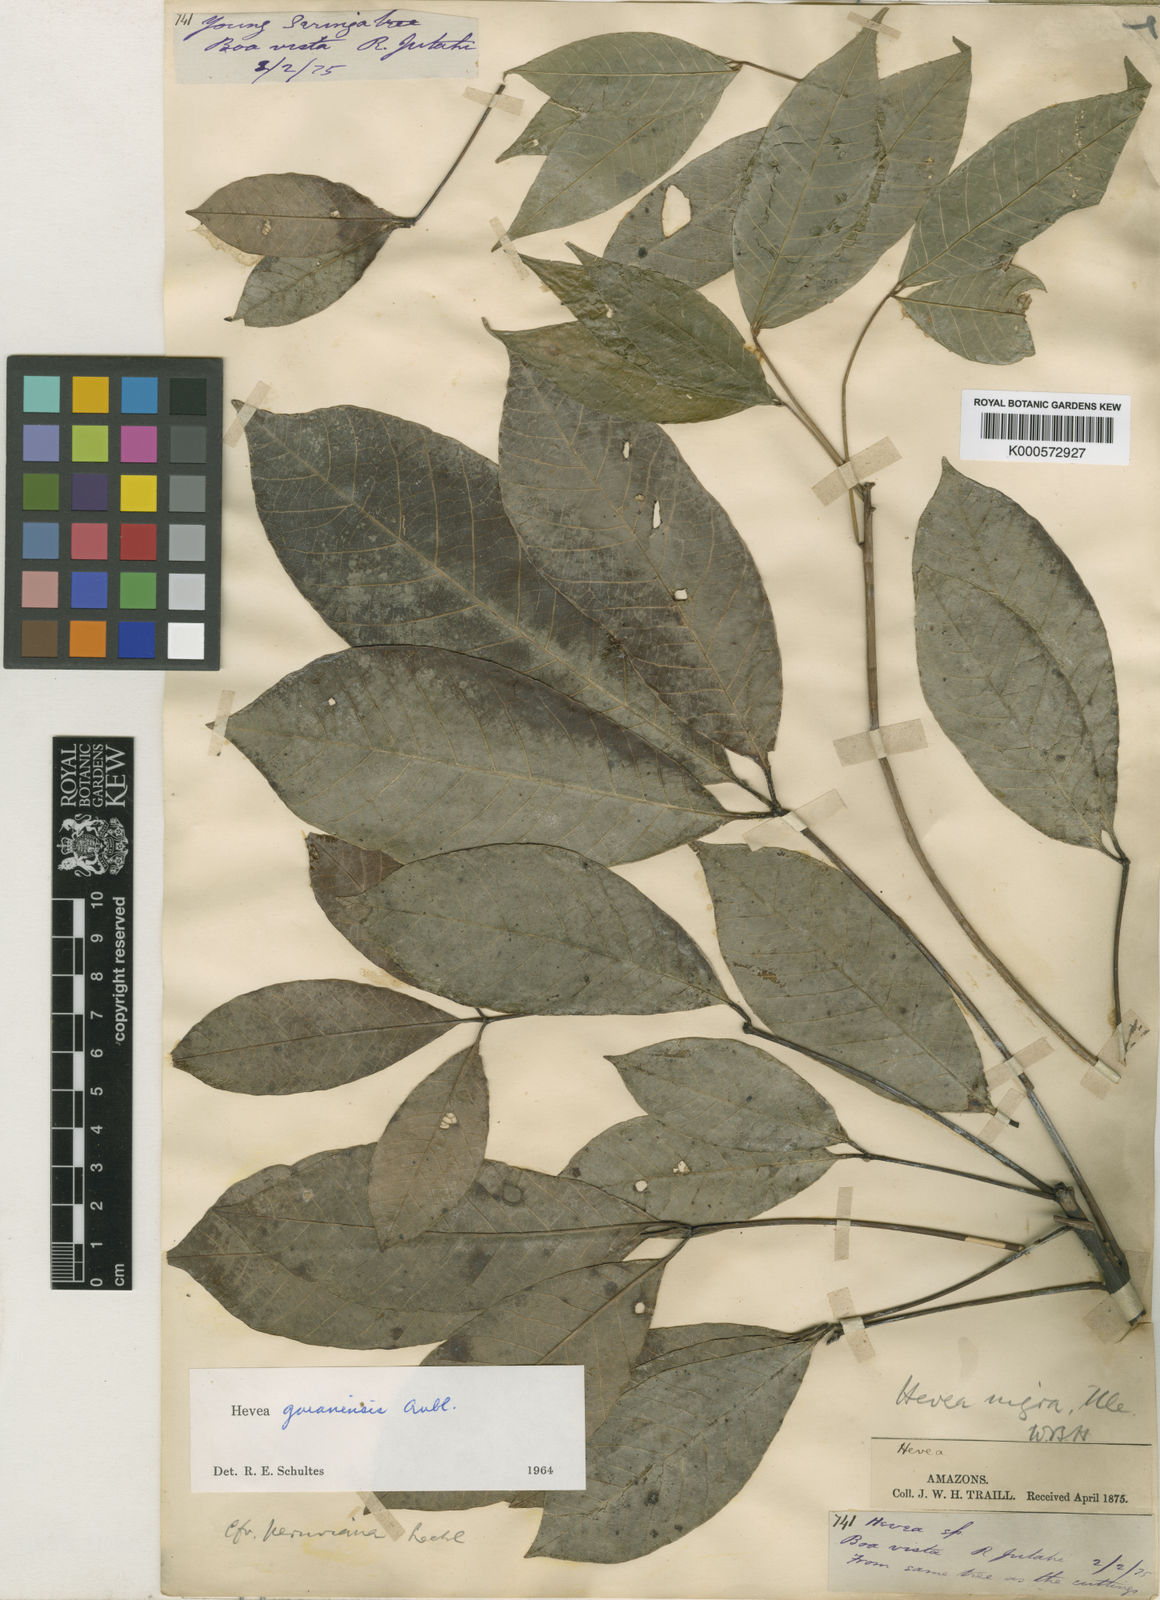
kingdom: Plantae
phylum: Tracheophyta
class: Magnoliopsida
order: Malpighiales
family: Euphorbiaceae
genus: Hevea
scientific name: Hevea guianensis
